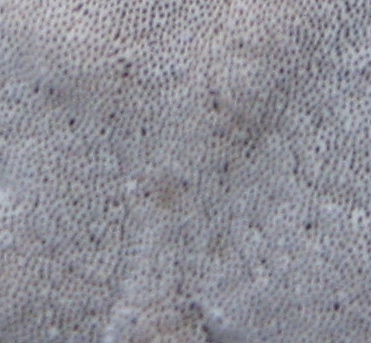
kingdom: Fungi
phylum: Basidiomycota
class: Agaricomycetes
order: Polyporales
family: Polyporaceae
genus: Trametes
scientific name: Trametes hirsuta
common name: håret læderporesvamp
